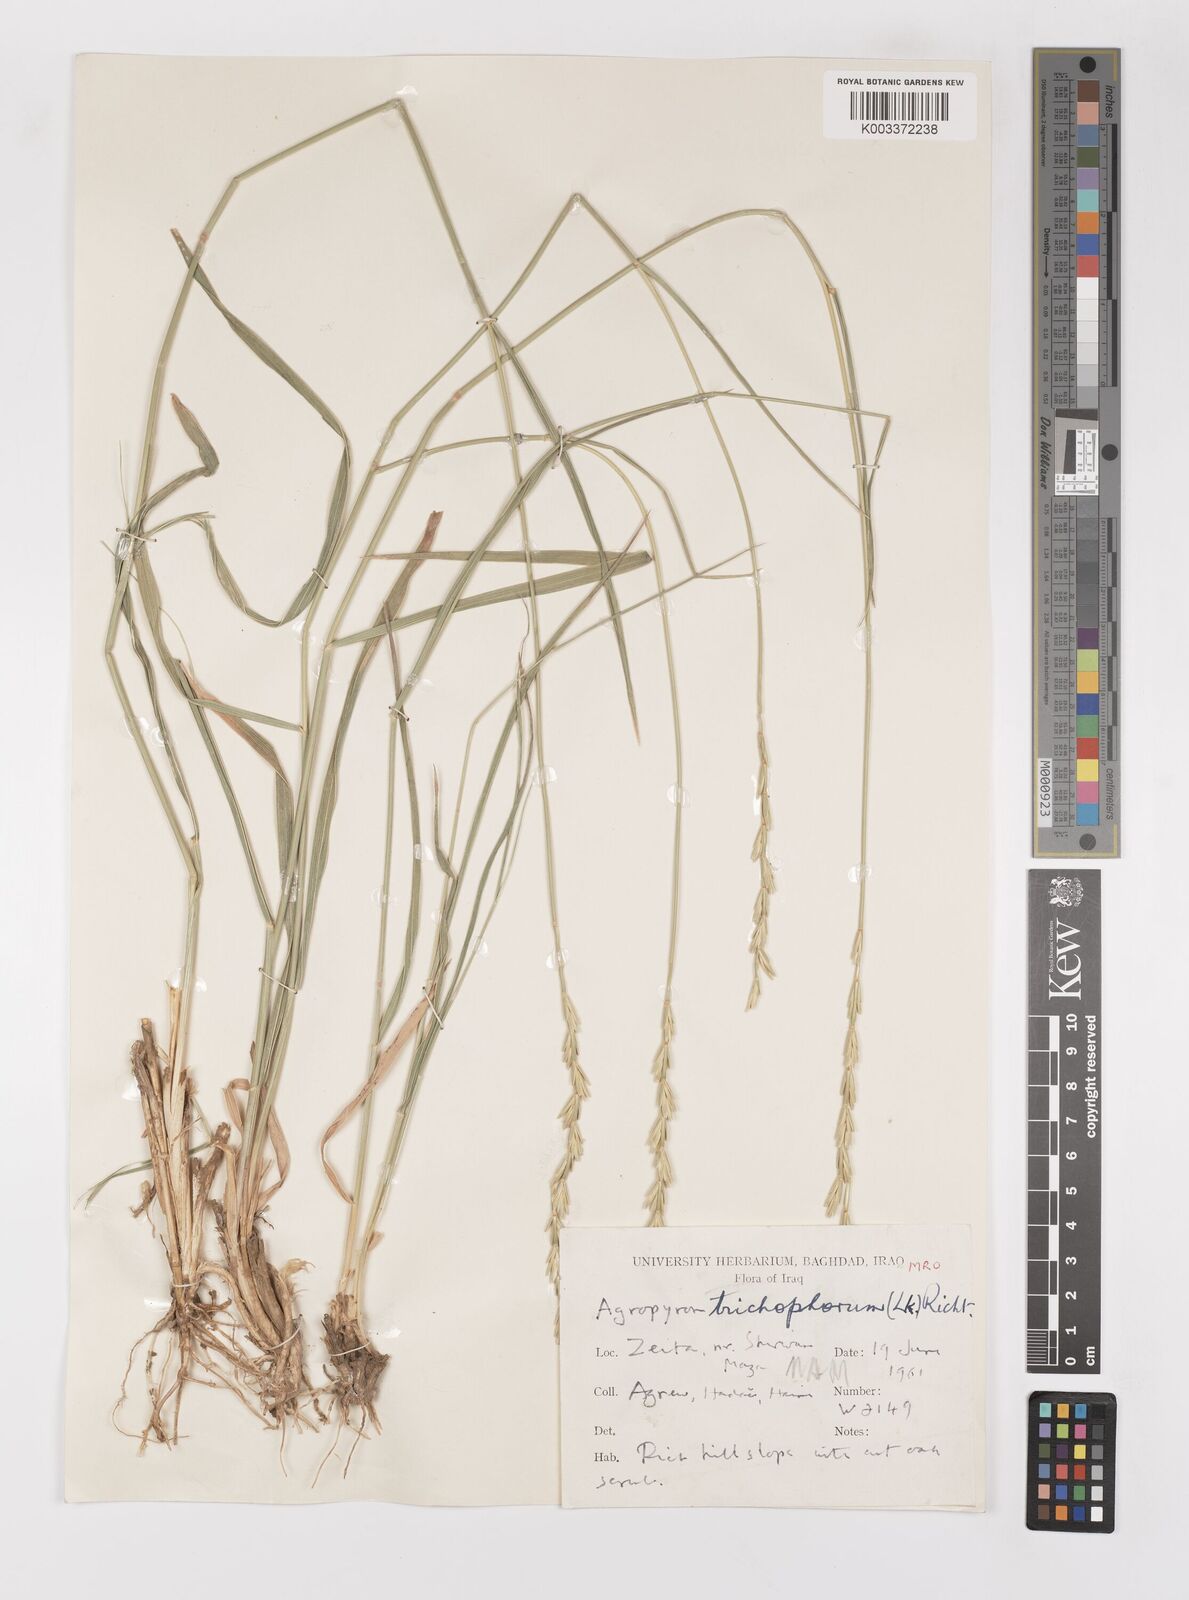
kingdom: Plantae
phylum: Tracheophyta
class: Liliopsida
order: Poales
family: Poaceae
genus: Thinopyrum
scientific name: Thinopyrum intermedium
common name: Intermediate wheatgrass
